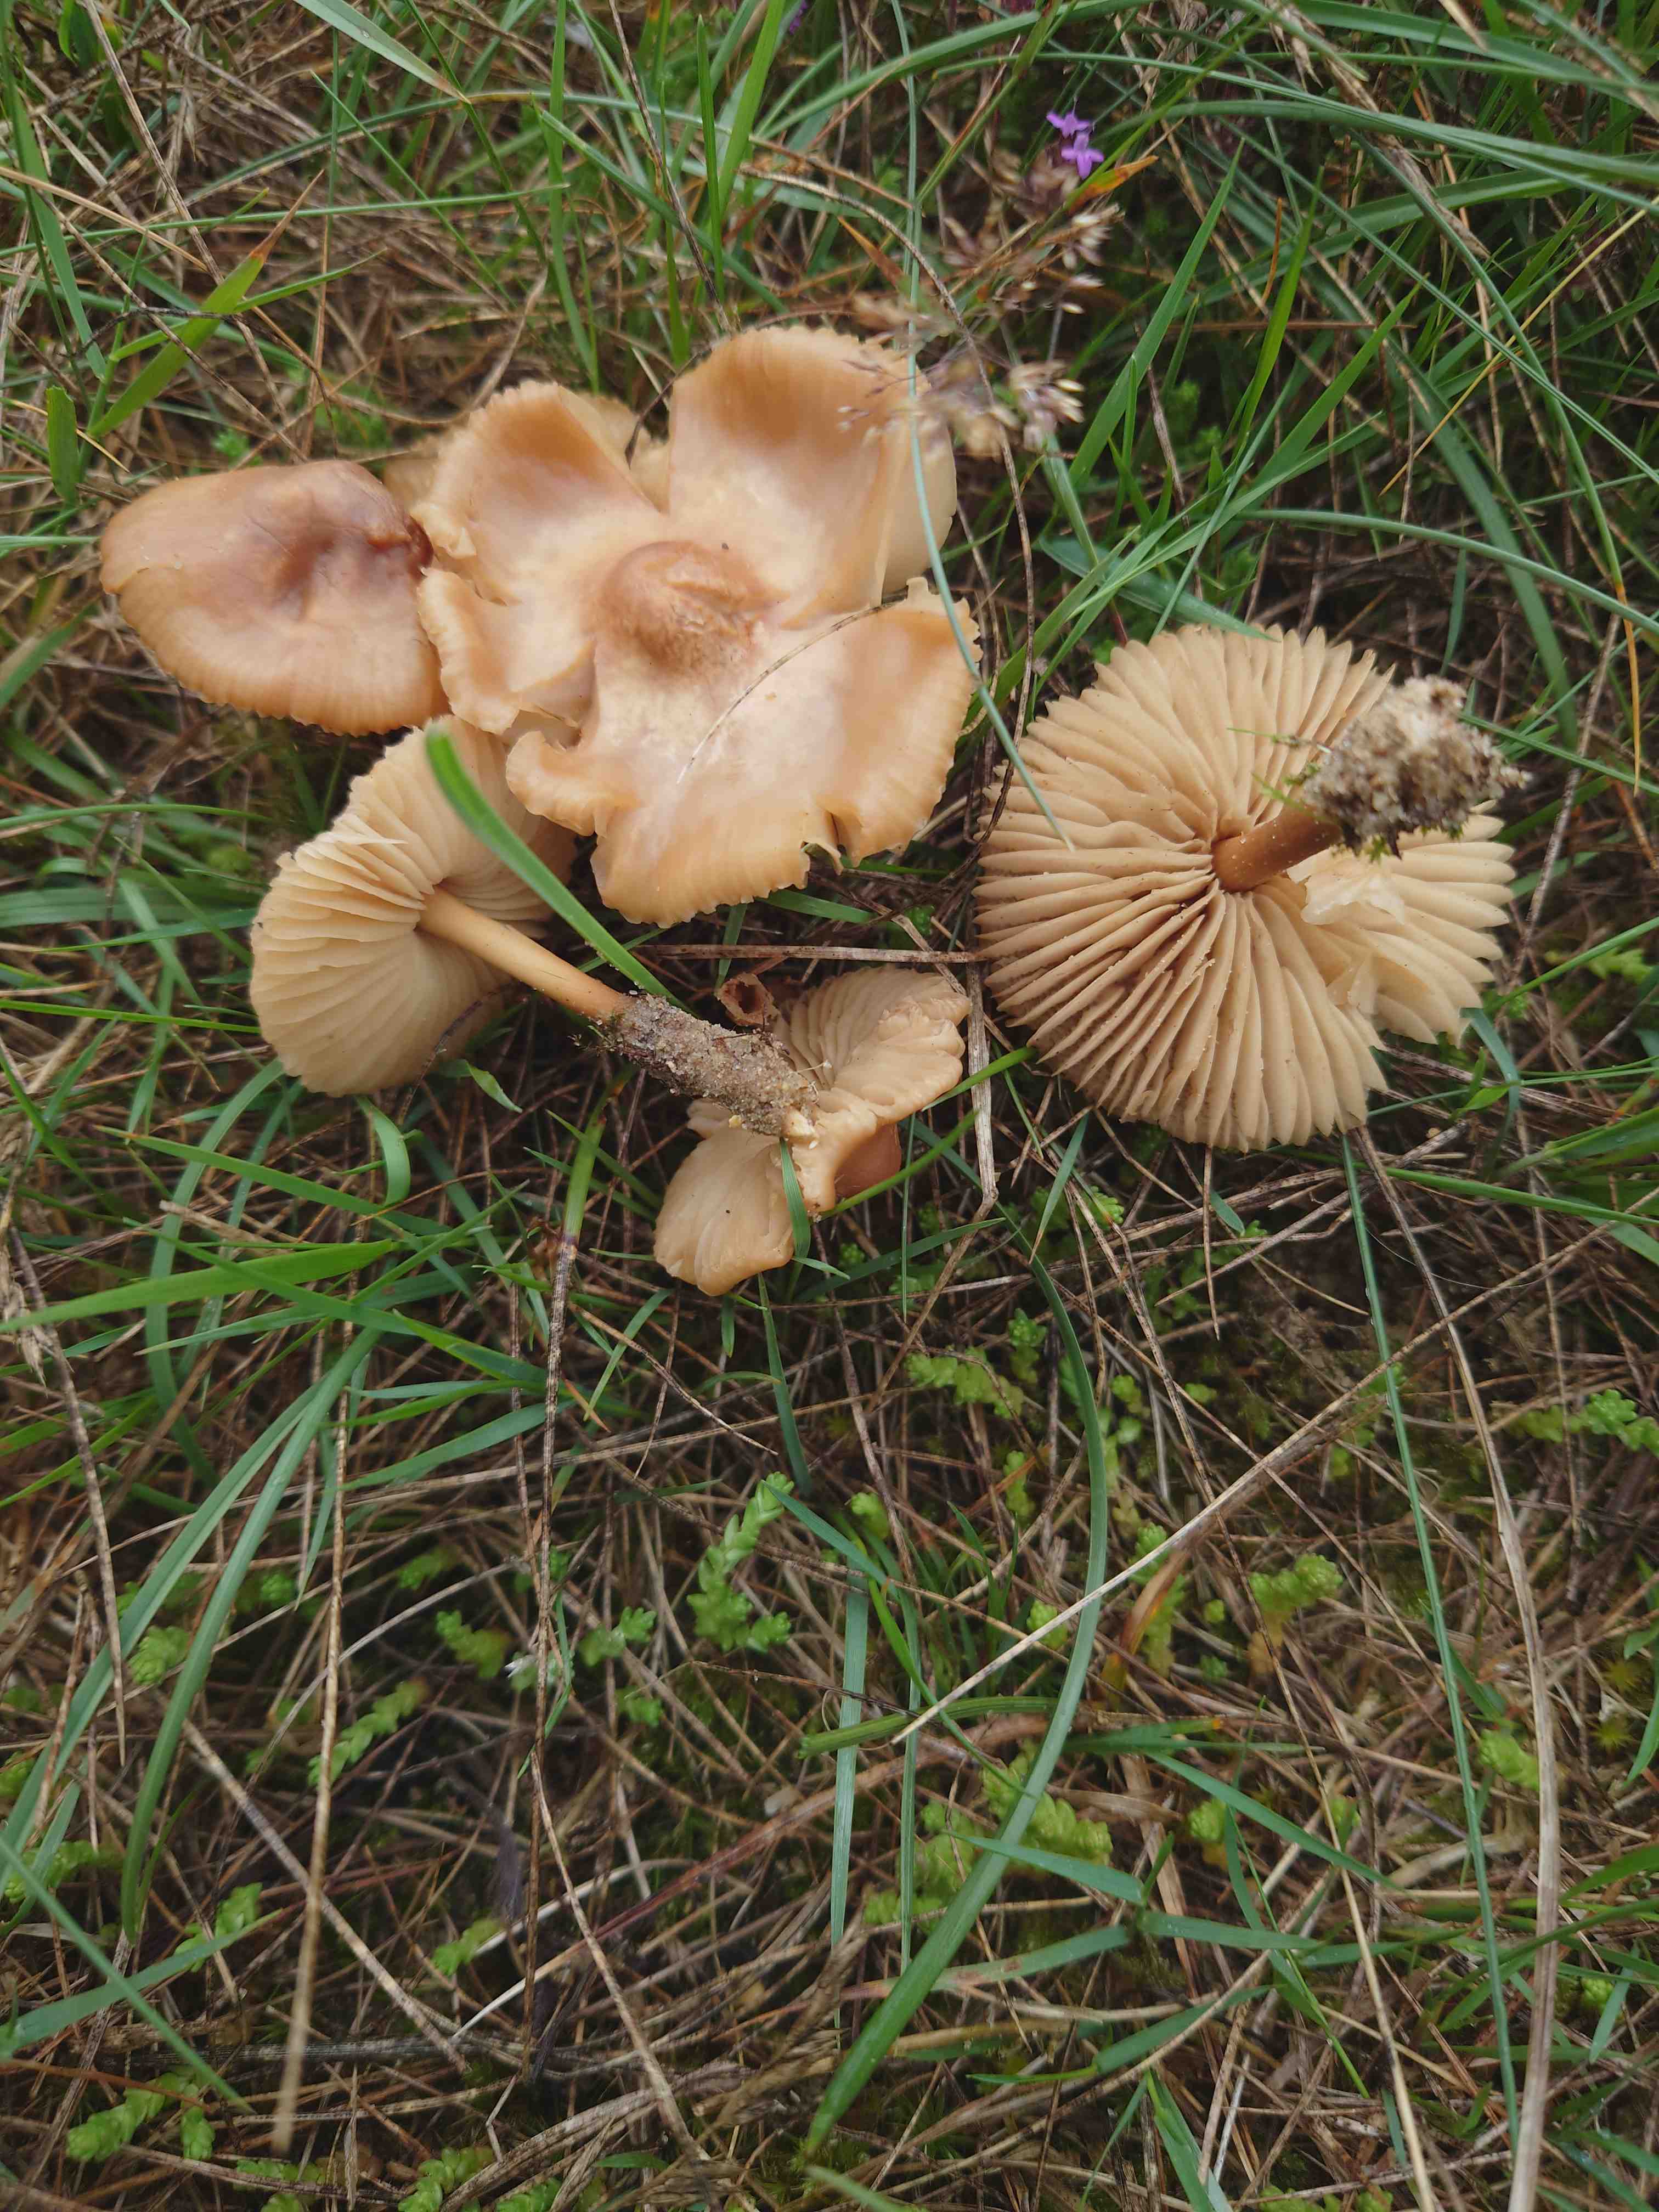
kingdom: Fungi
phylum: Basidiomycota
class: Agaricomycetes
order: Agaricales
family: Marasmiaceae
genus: Marasmius
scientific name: Marasmius oreades
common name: elledans-bruskhat
